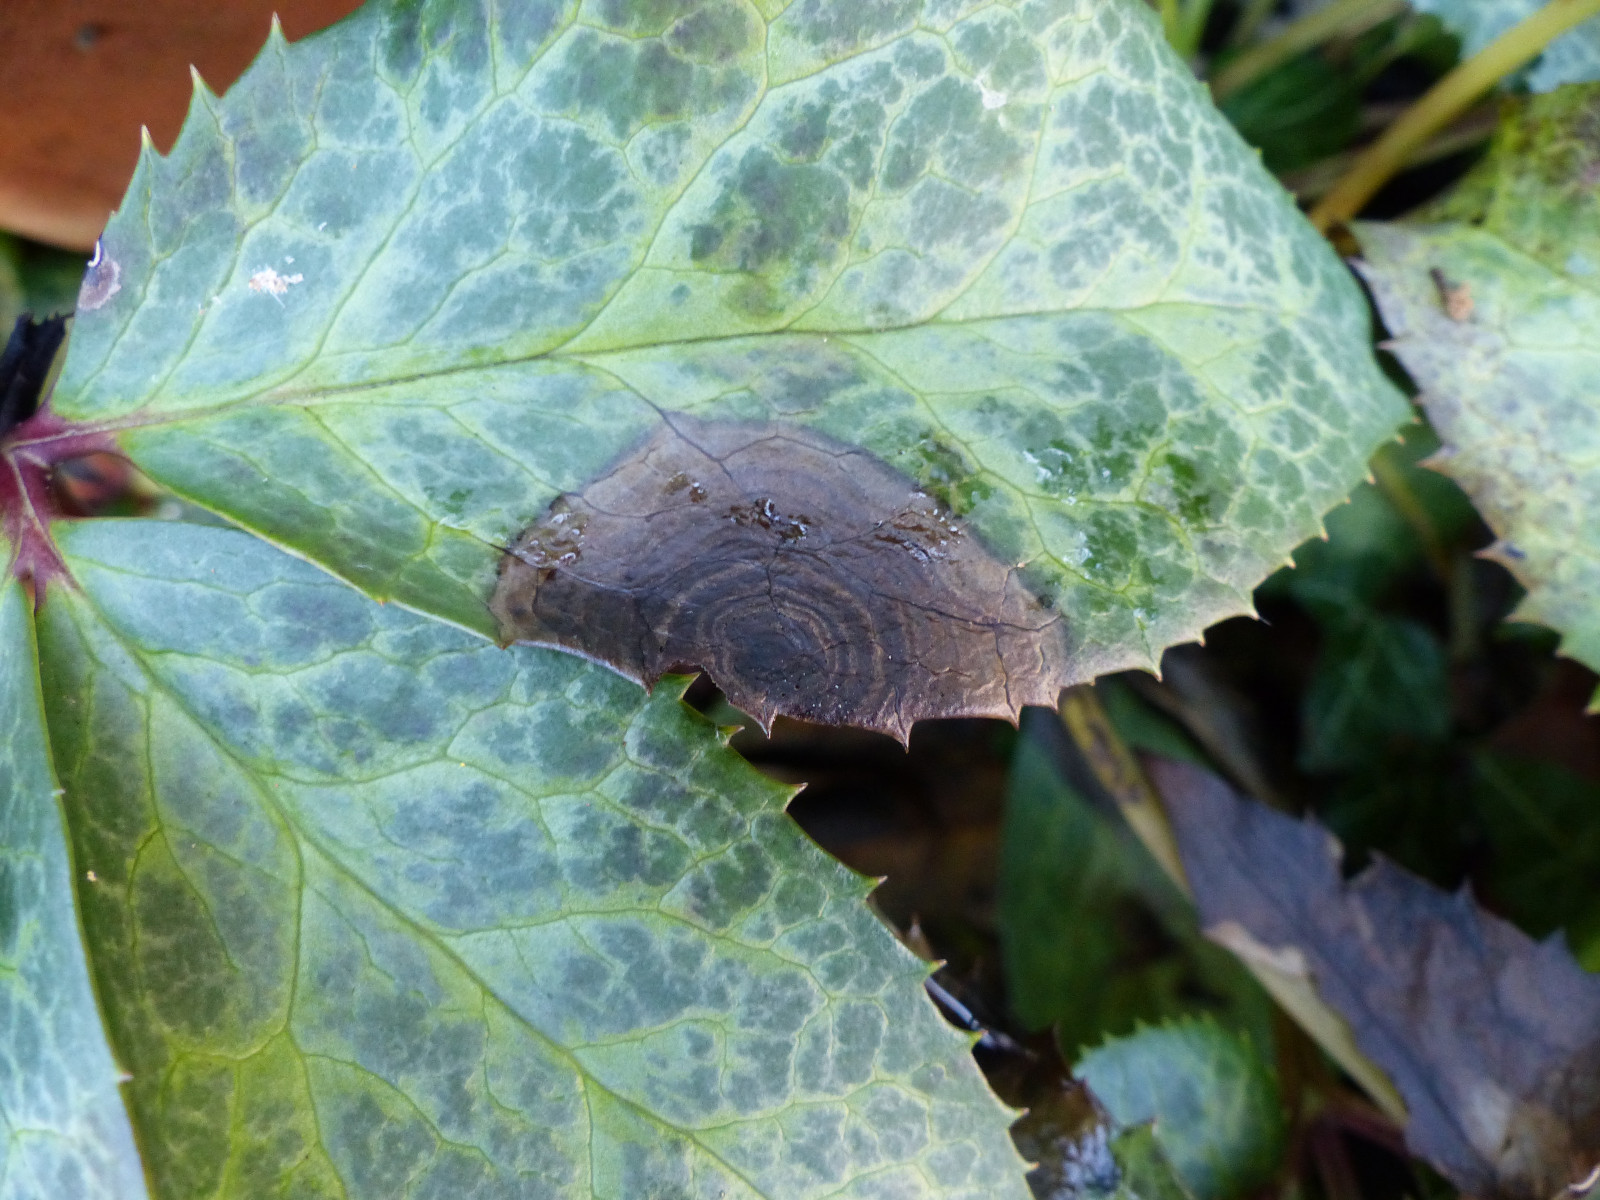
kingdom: Fungi
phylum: Ascomycota
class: Dothideomycetes
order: Pleosporales
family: Didymellaceae
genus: Microsphaeropsis
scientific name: Microsphaeropsis hellebori
